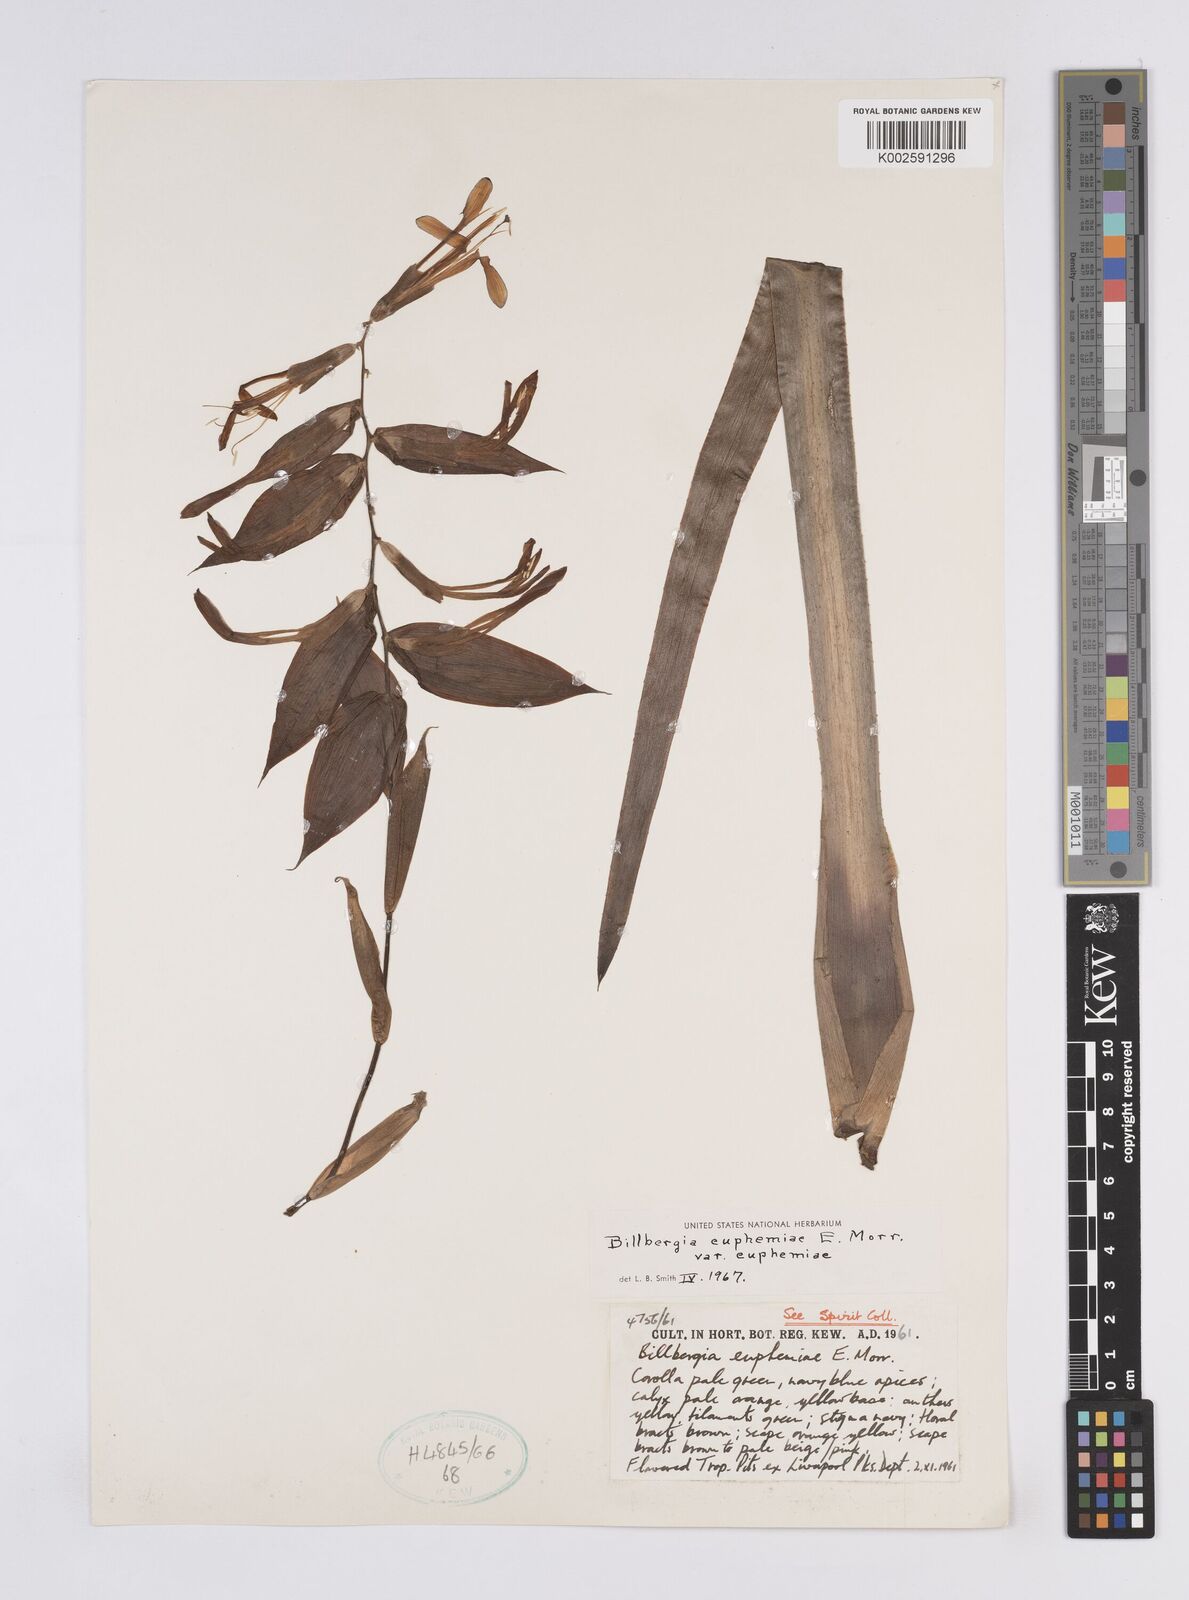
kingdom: Plantae
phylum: Tracheophyta
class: Liliopsida
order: Poales
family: Bromeliaceae
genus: Billbergia
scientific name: Billbergia euphemiae
